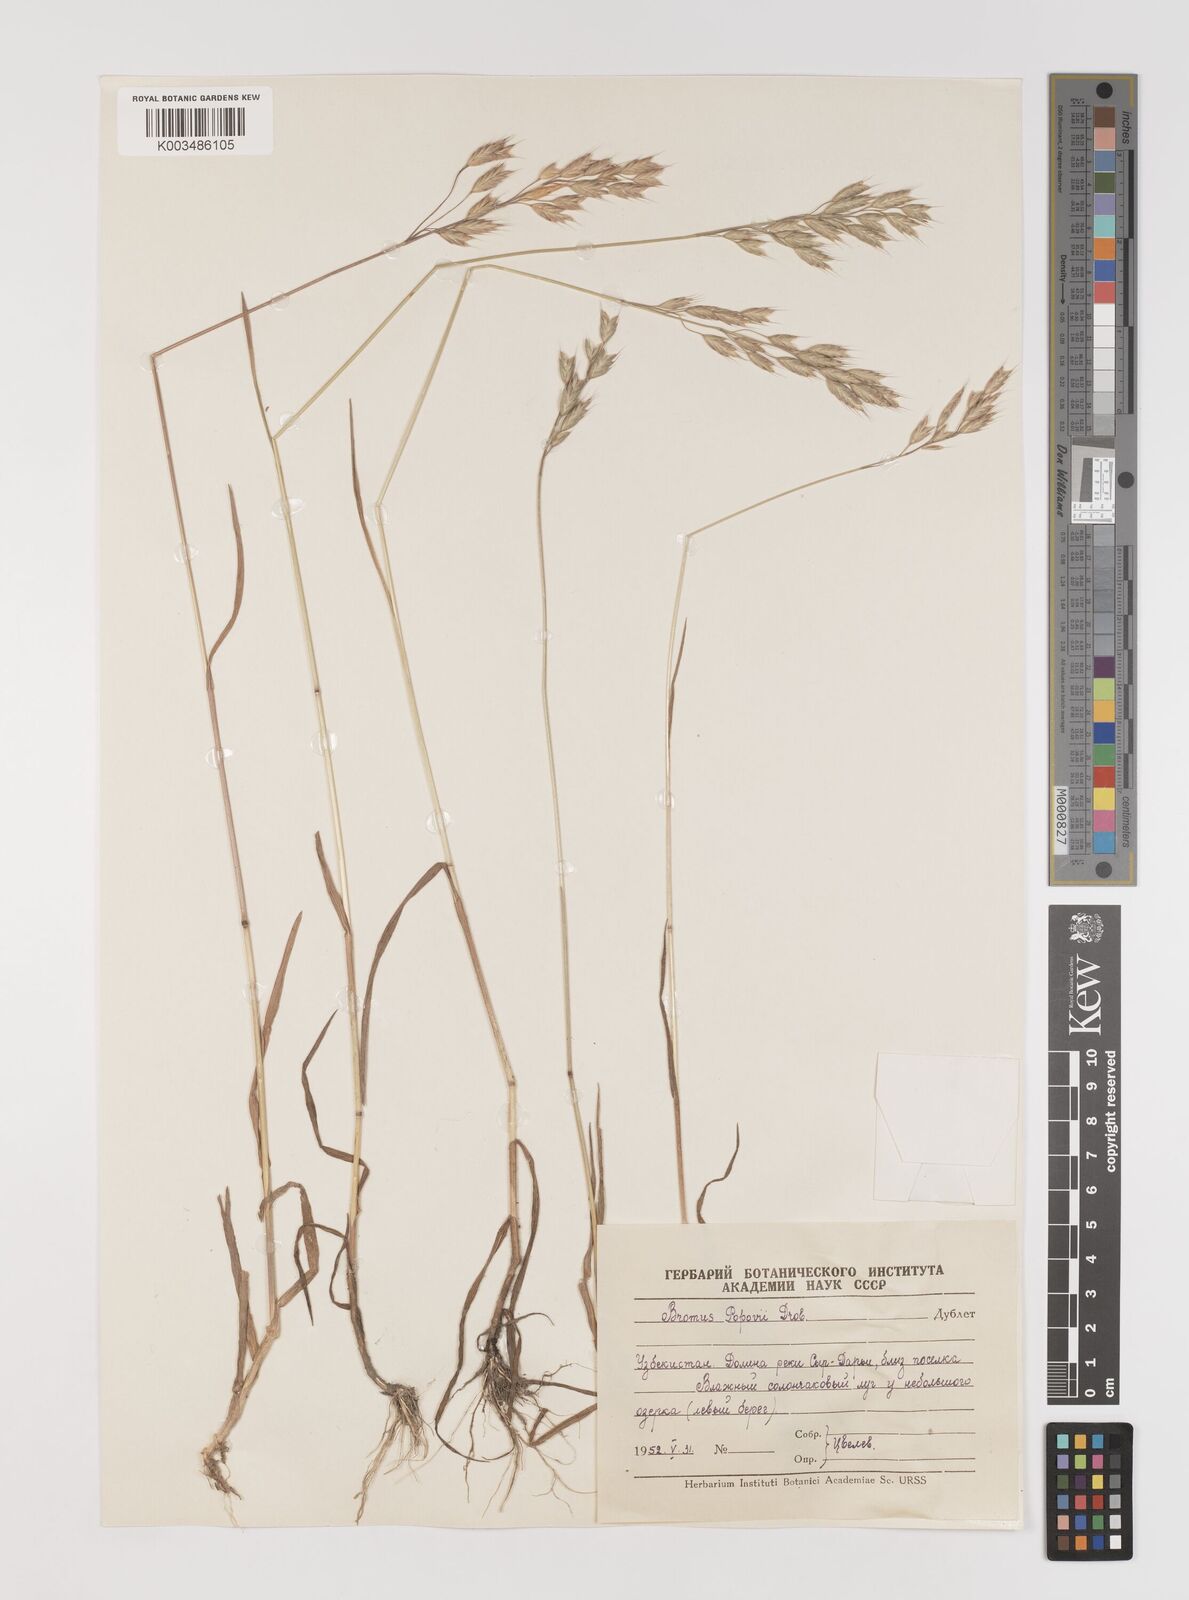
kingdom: Plantae
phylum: Tracheophyta
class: Liliopsida
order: Poales
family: Poaceae
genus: Bromus
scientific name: Bromus racemosus
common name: Bald brome
